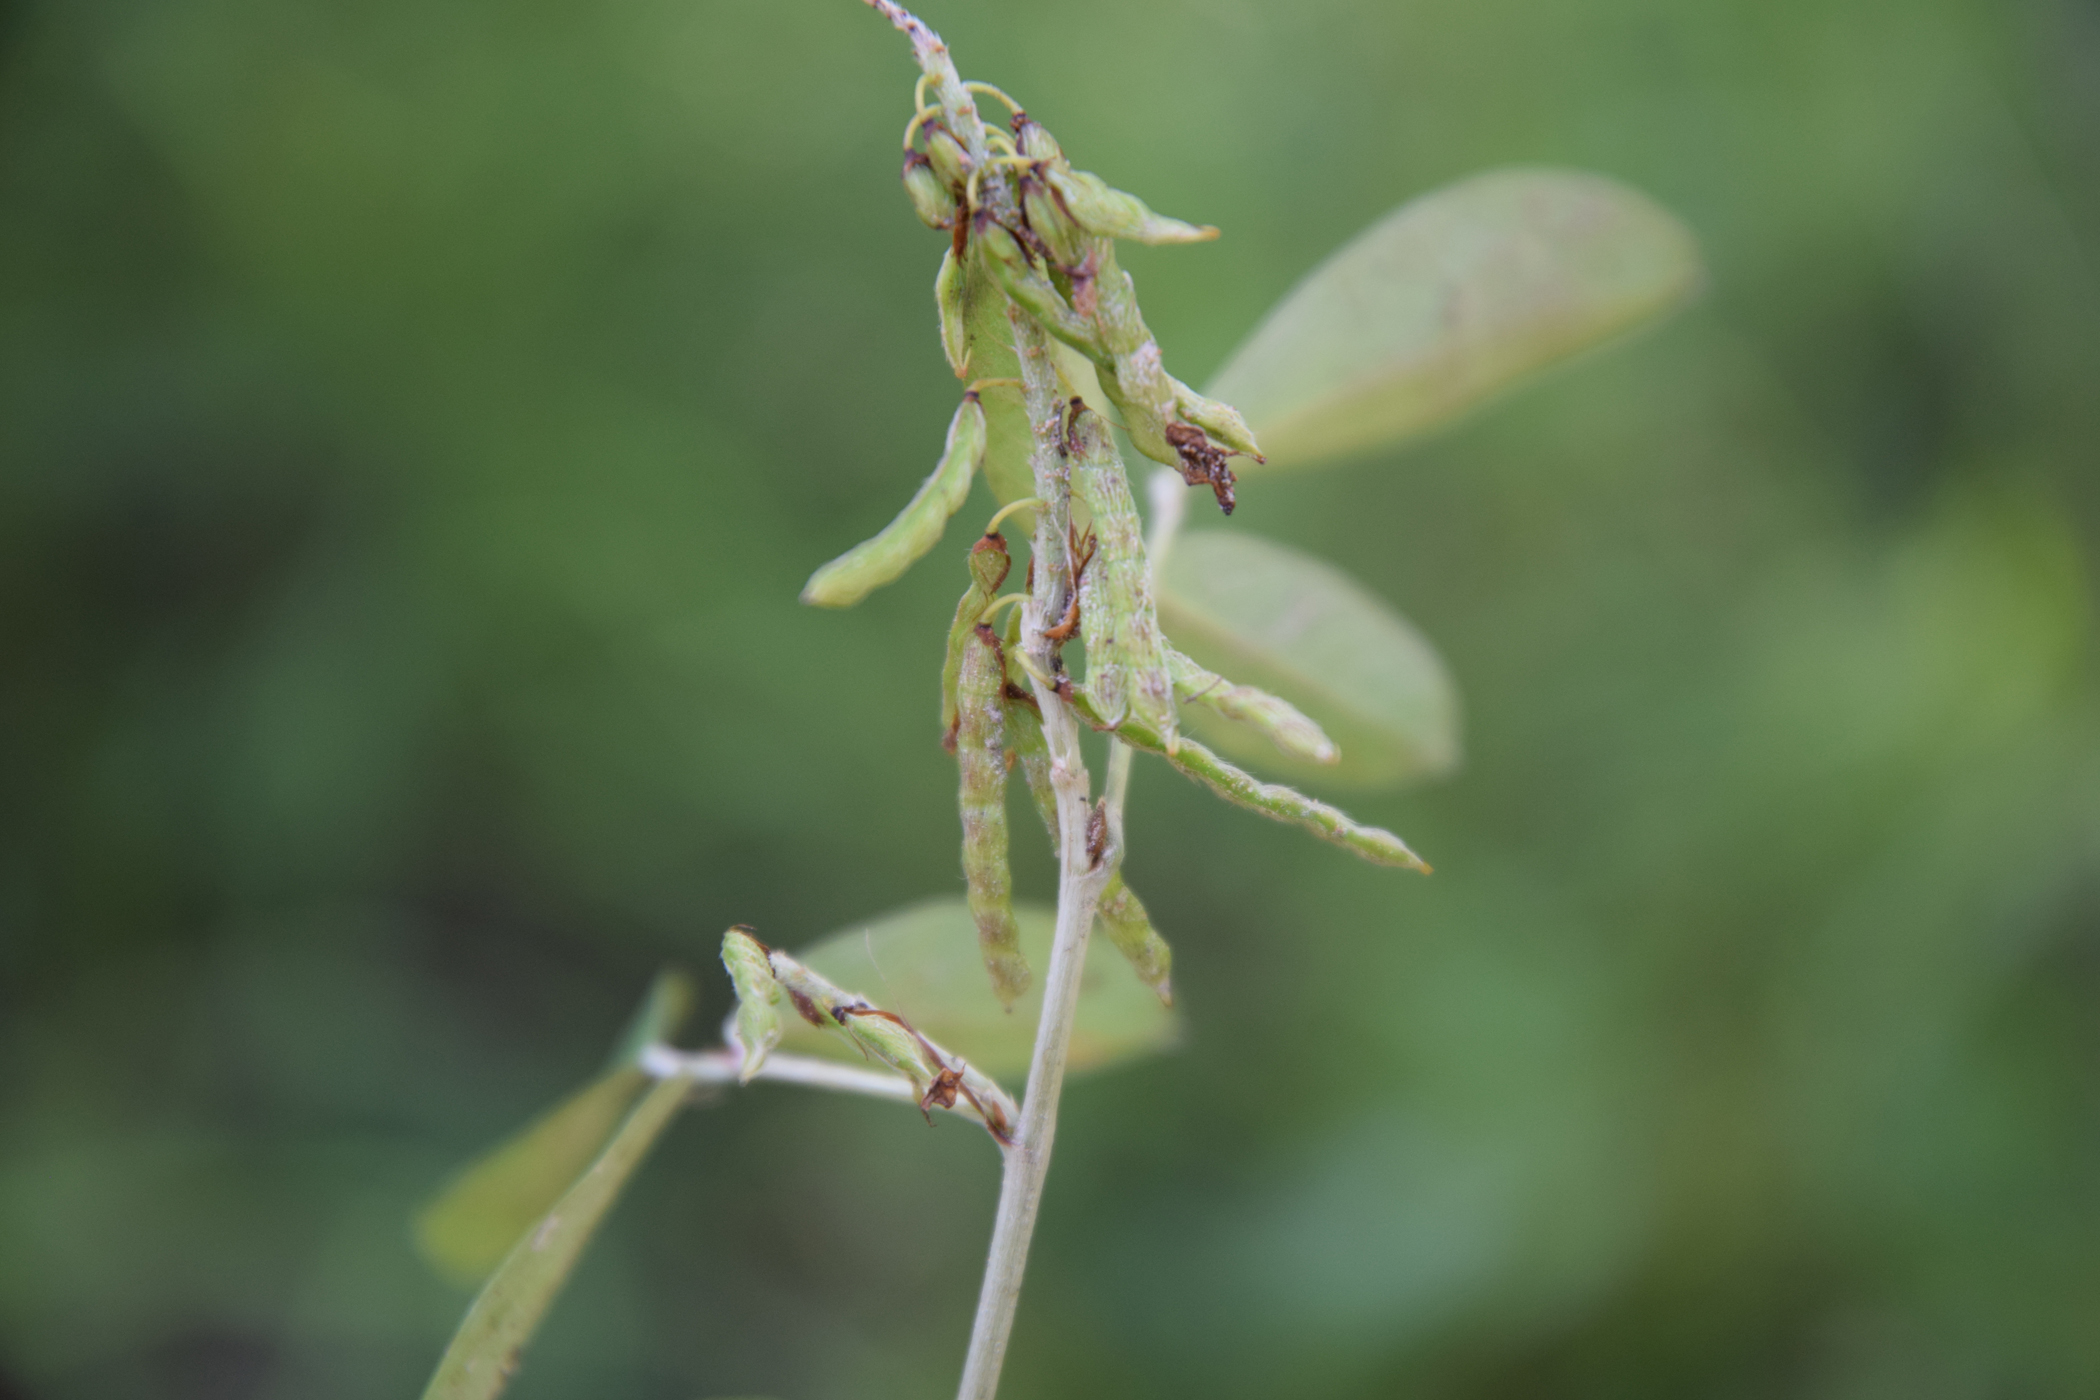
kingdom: Plantae
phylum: Tracheophyta
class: Magnoliopsida
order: Fabales
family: Fabaceae
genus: Grona
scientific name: Grona strigillosa
